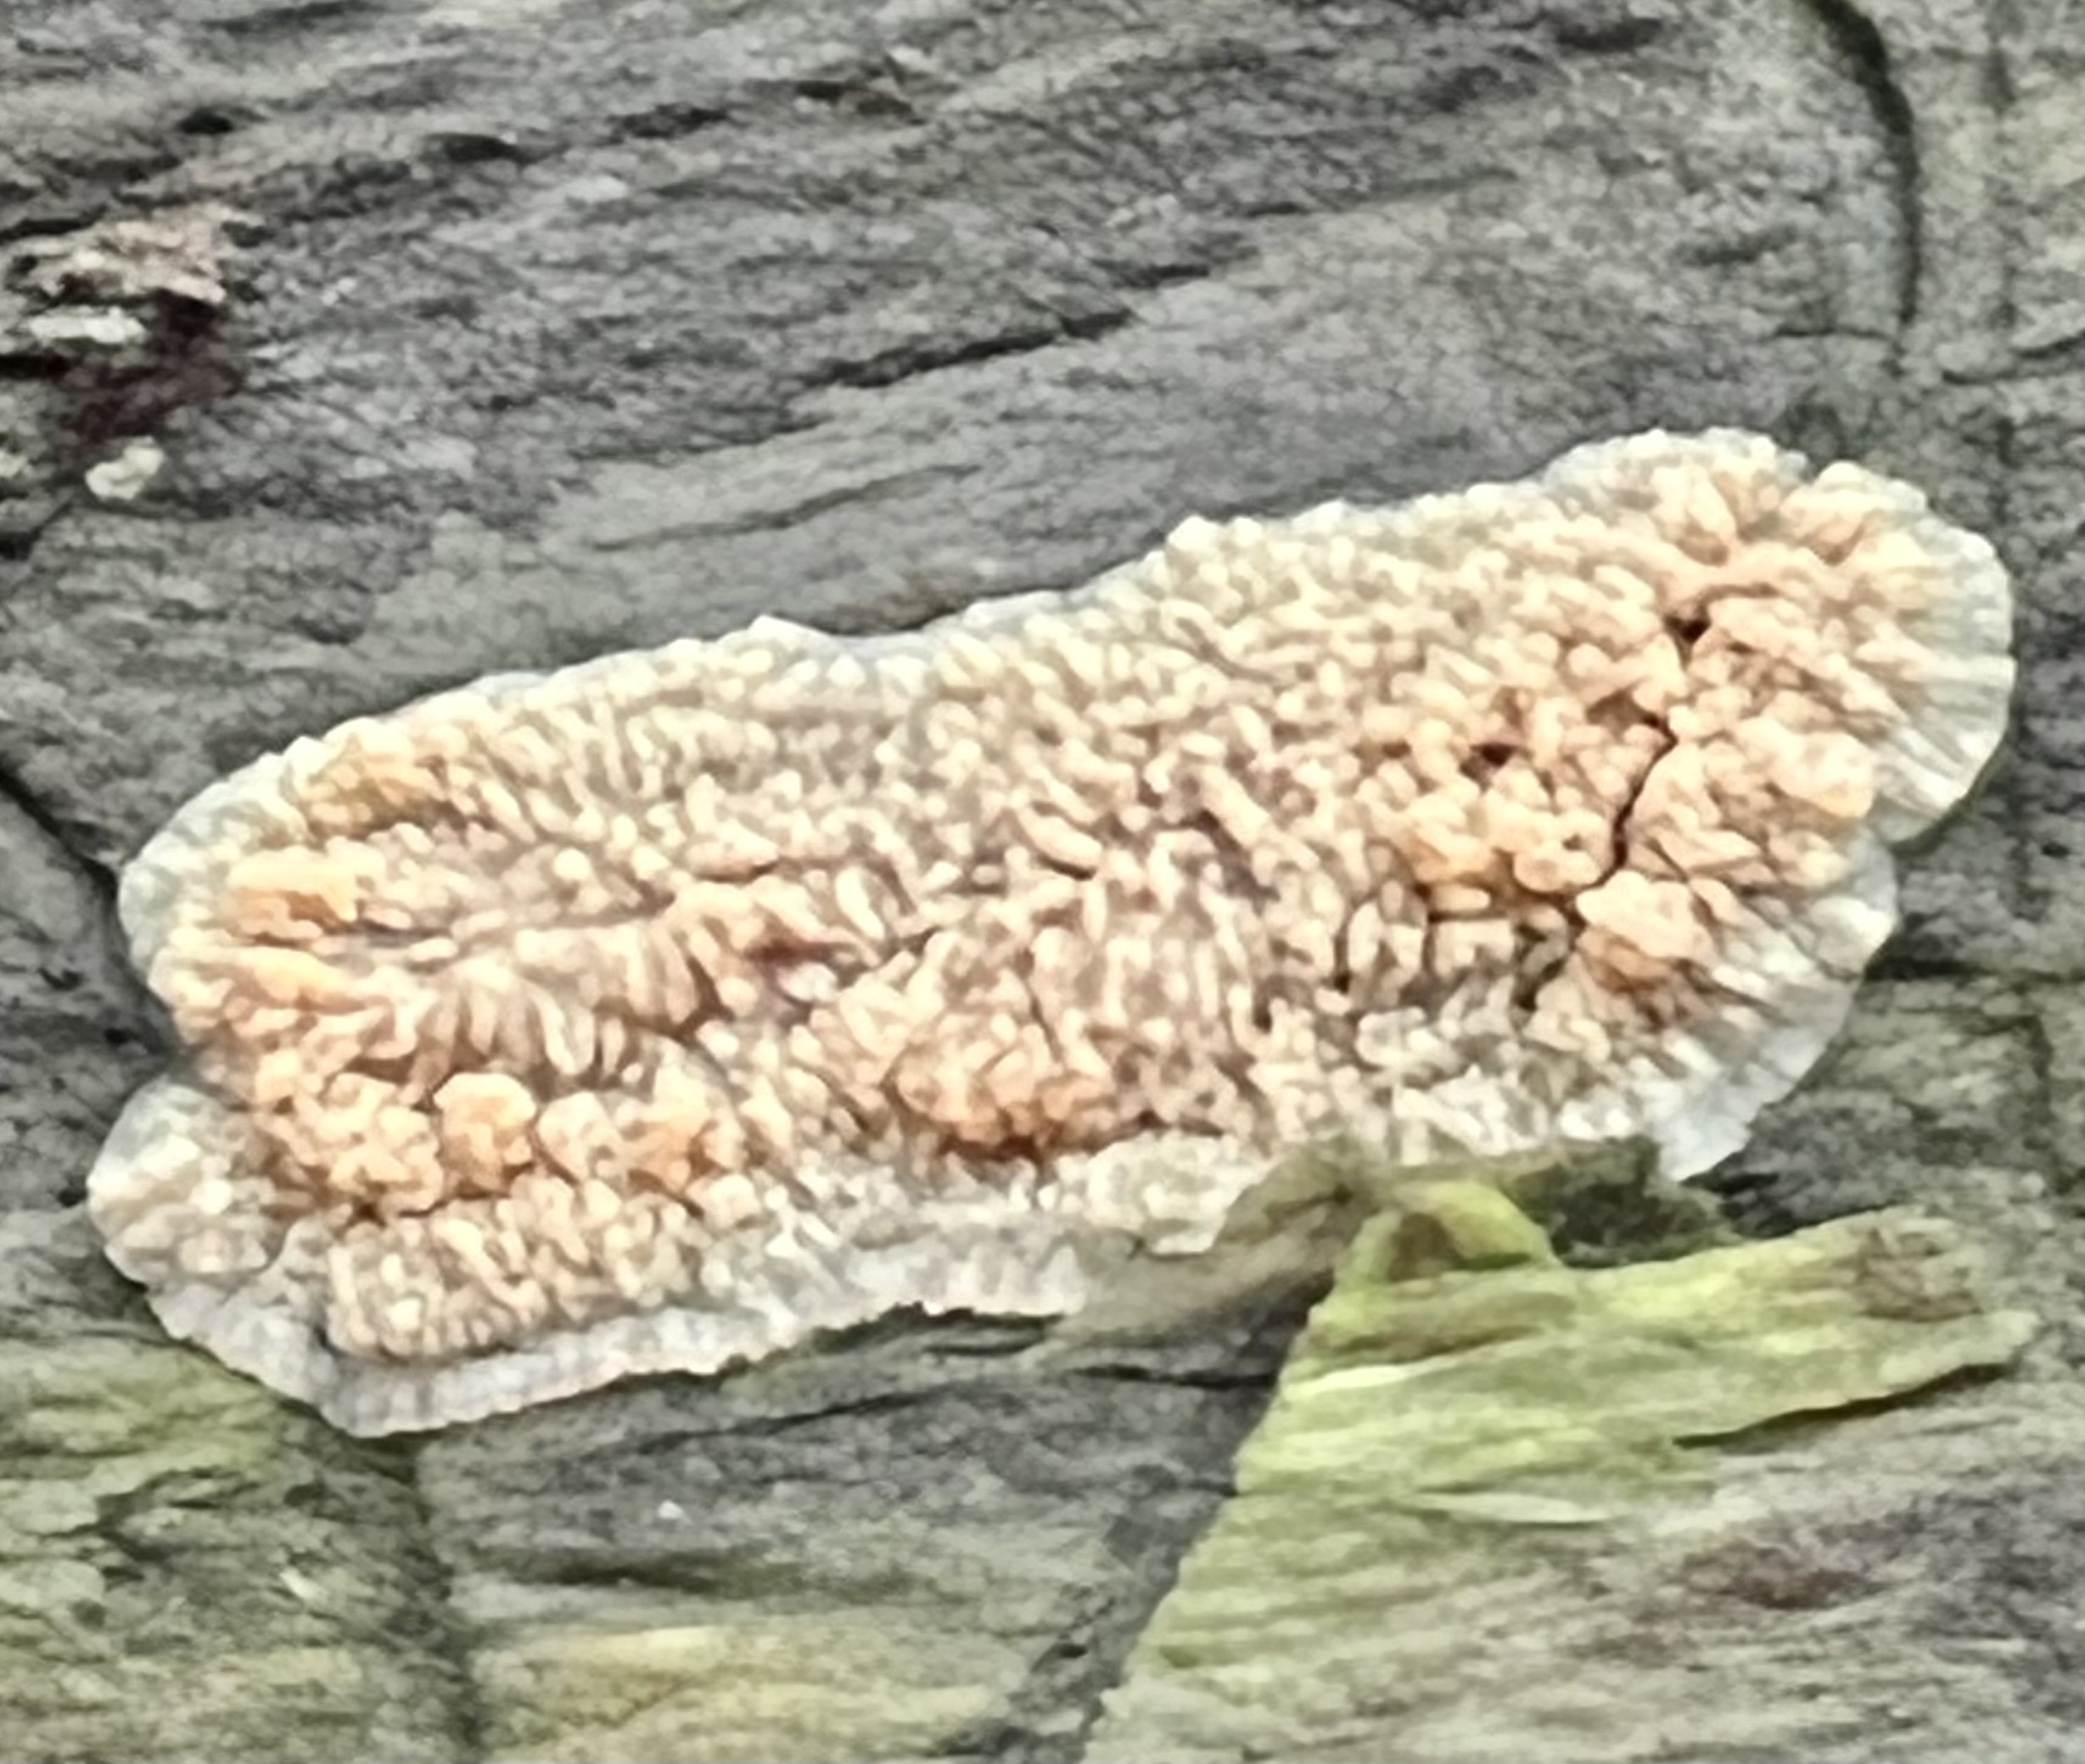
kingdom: Fungi
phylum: Basidiomycota
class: Agaricomycetes
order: Polyporales
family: Meruliaceae
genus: Phlebia
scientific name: Phlebia radiata
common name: stråle-åresvamp
